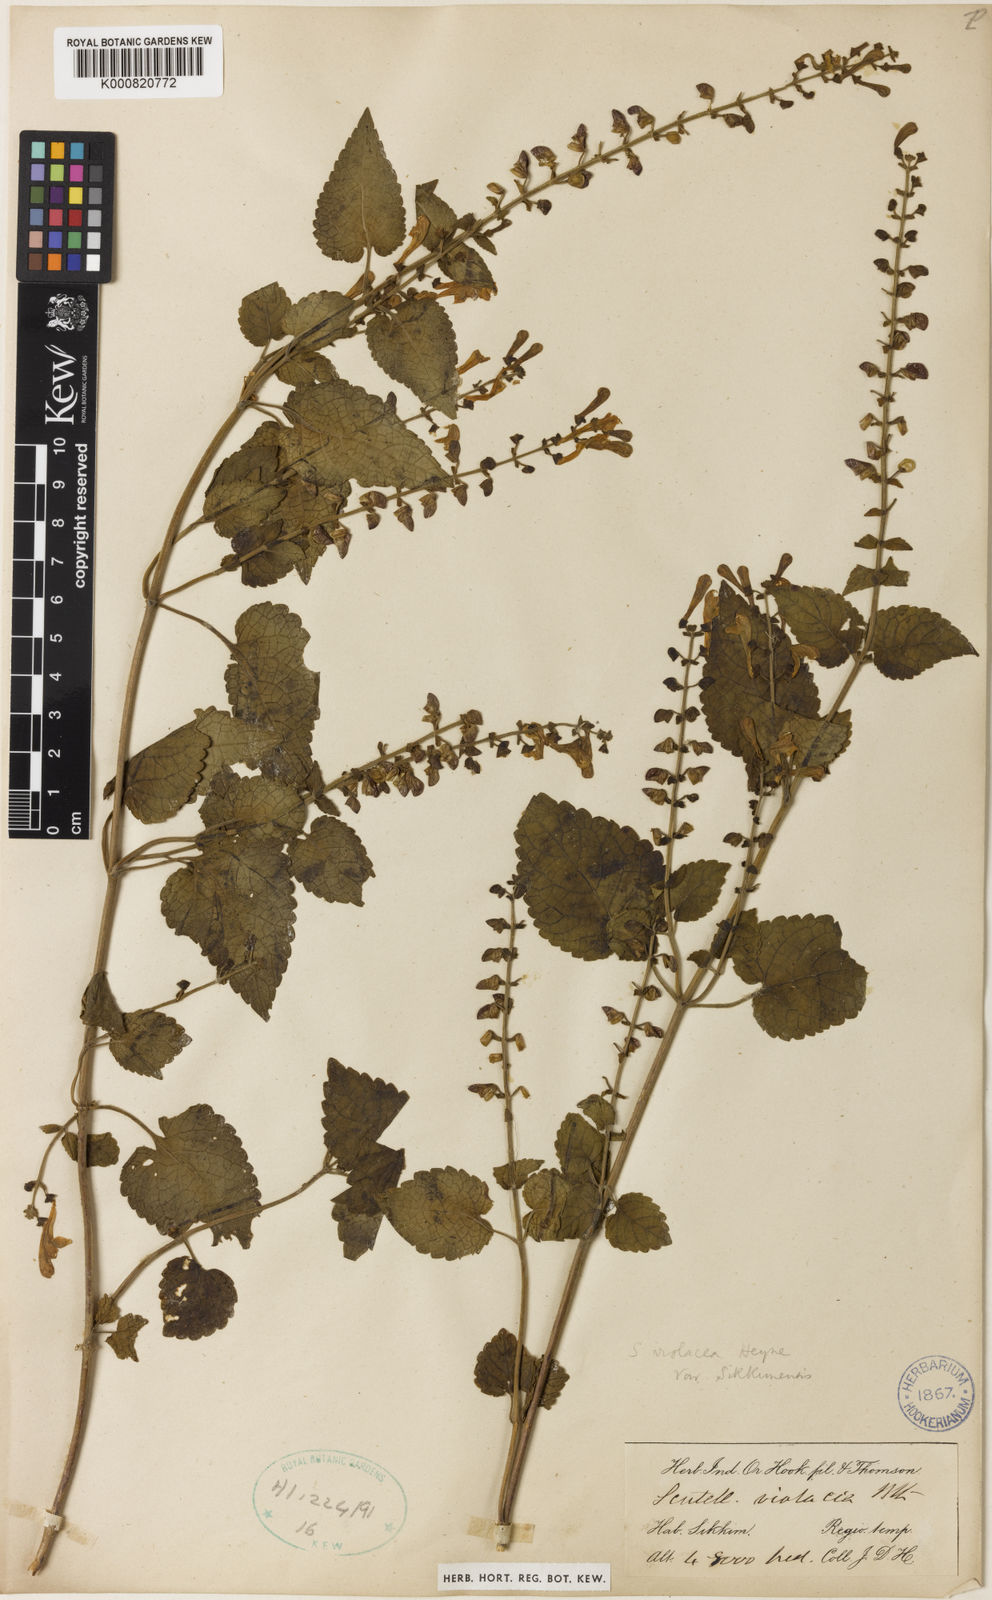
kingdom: Plantae
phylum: Tracheophyta
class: Magnoliopsida
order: Lamiales
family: Lamiaceae
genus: Scutellaria
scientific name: Scutellaria violacea
